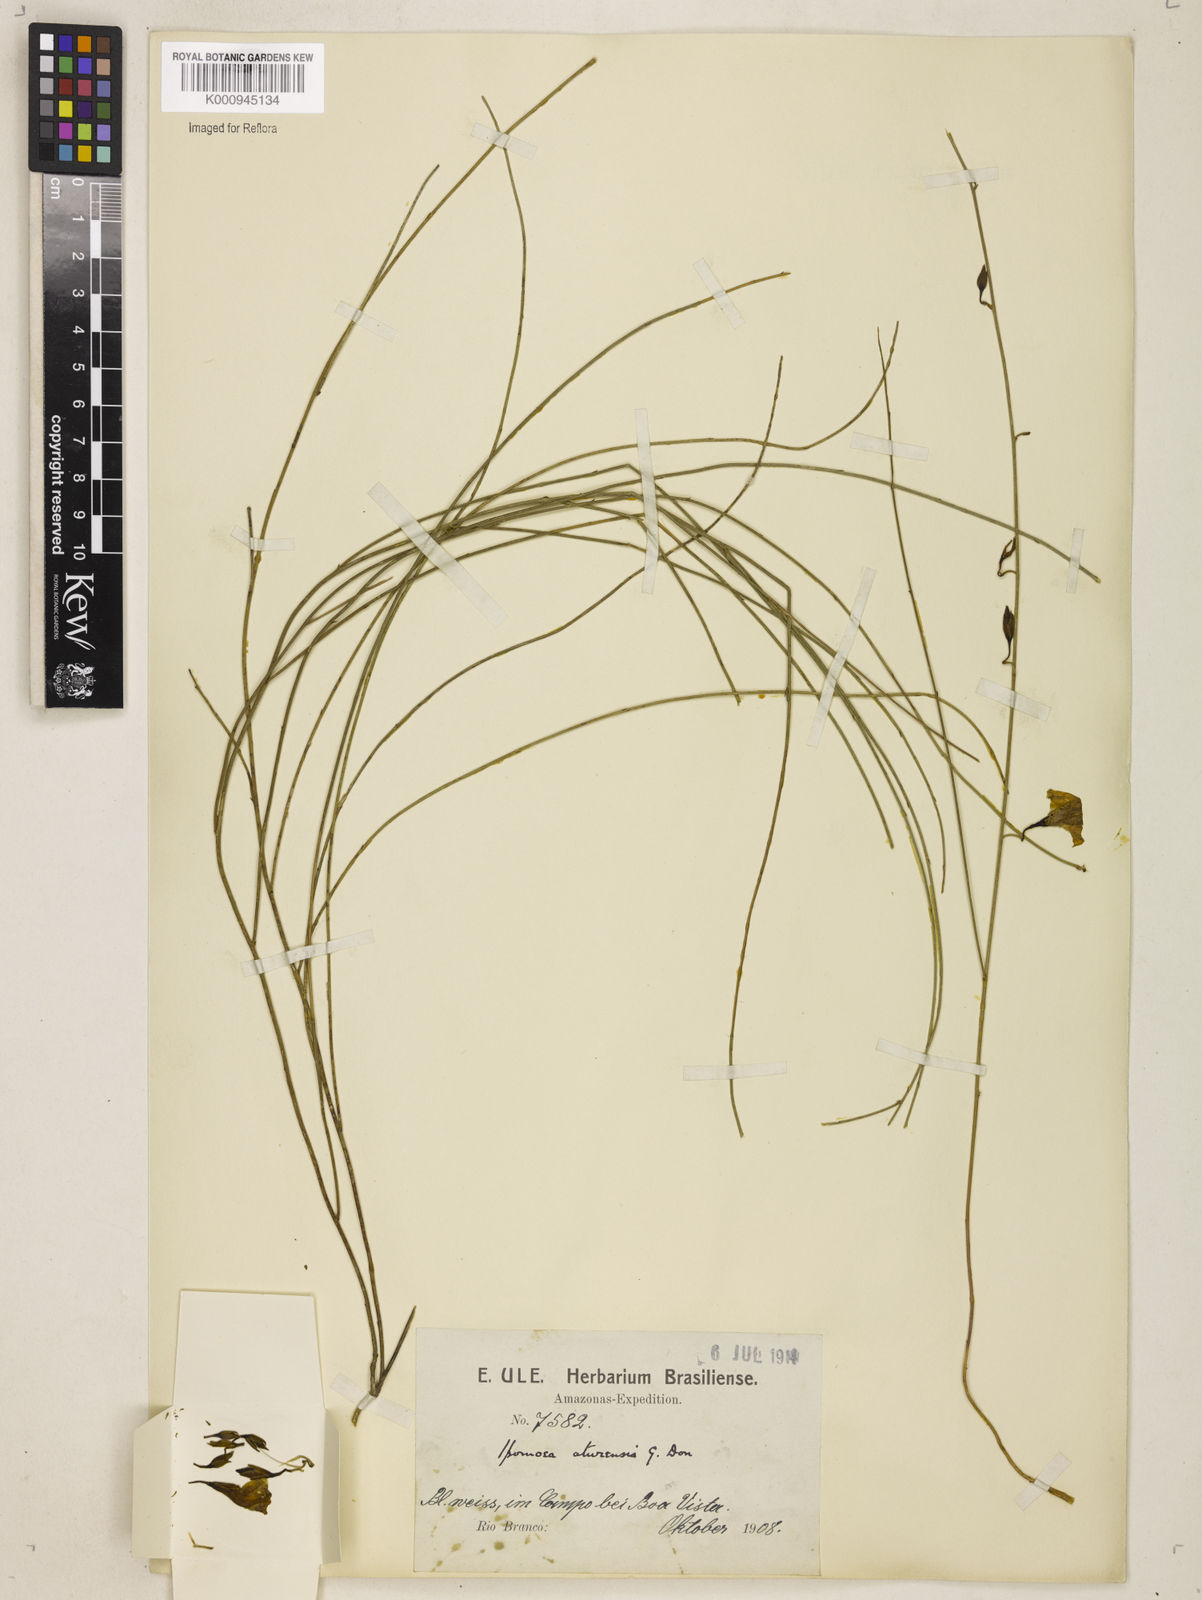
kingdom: Plantae
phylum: Tracheophyta
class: Magnoliopsida
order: Solanales
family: Convolvulaceae
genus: Distimake
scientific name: Distimake aturensis
